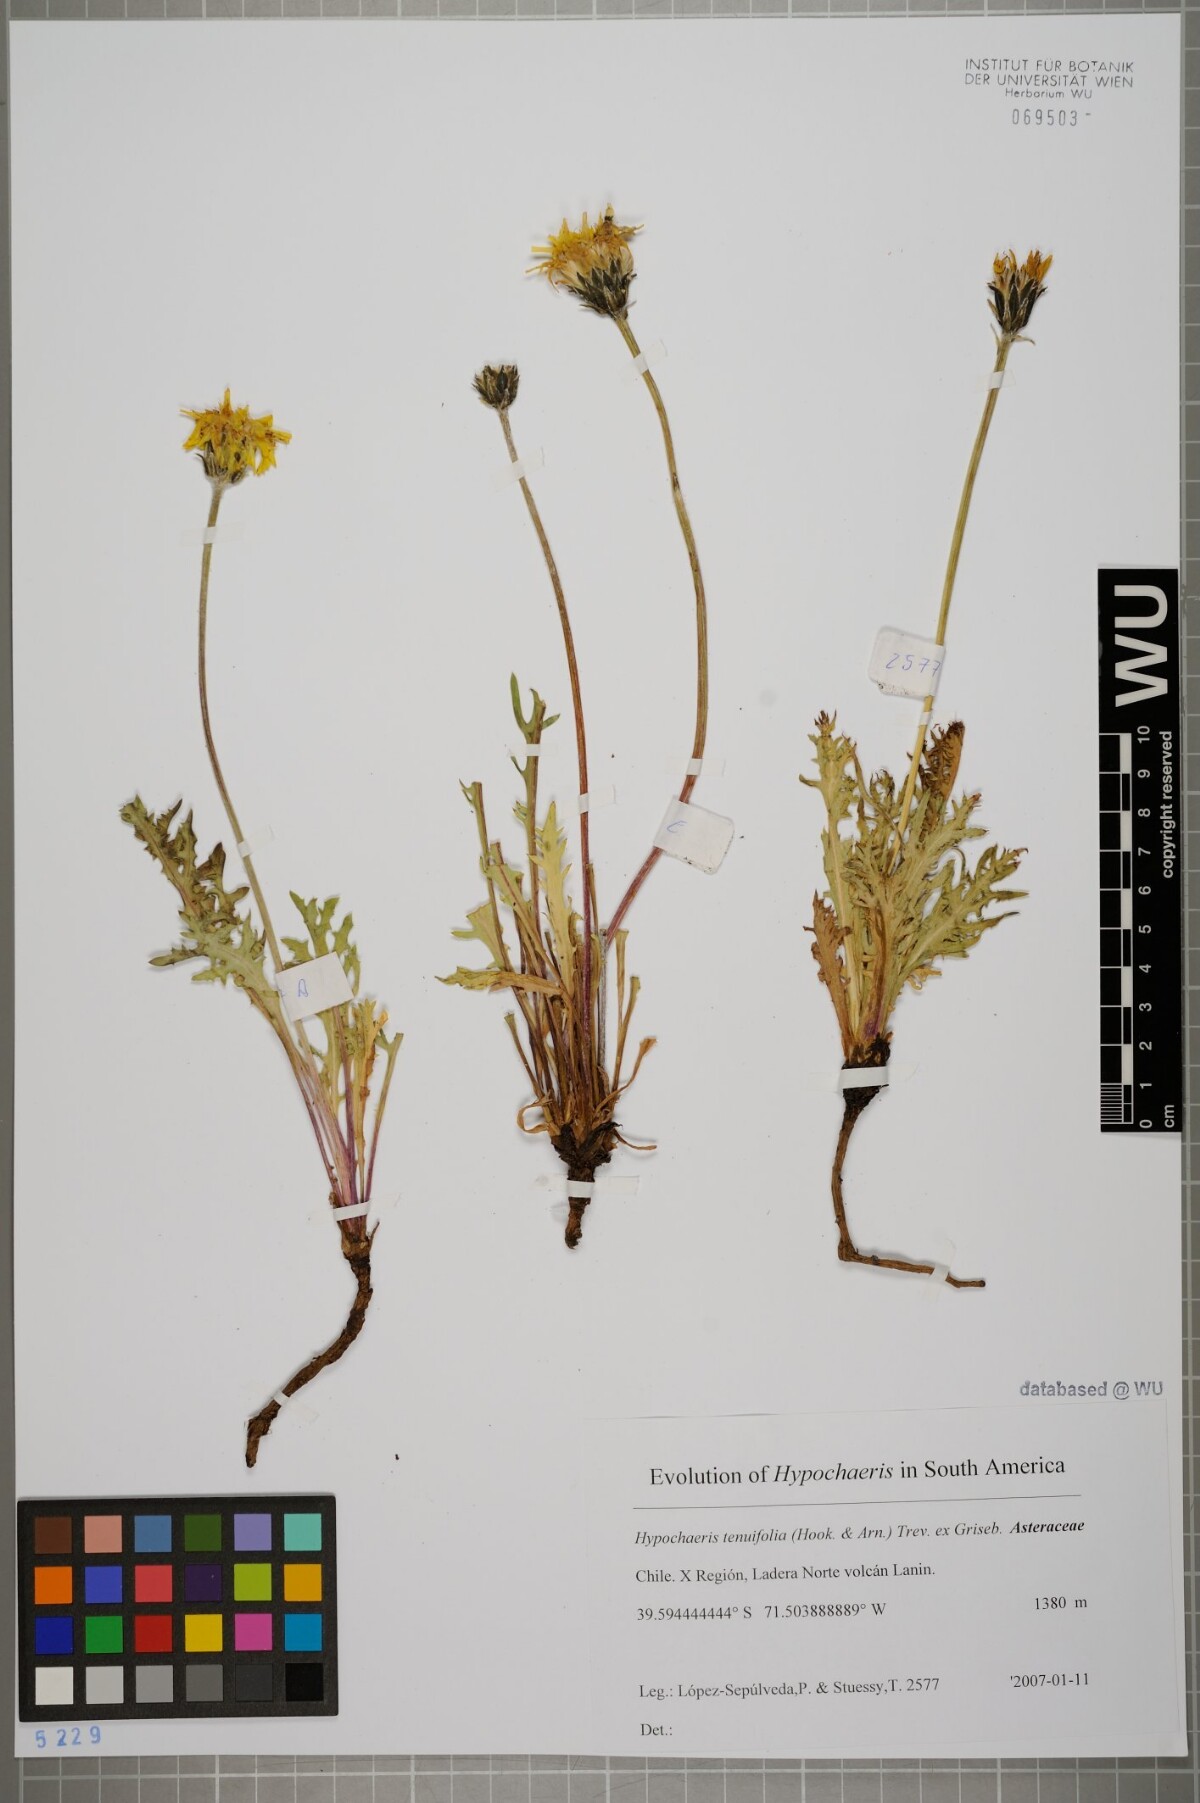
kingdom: Plantae
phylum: Tracheophyta
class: Magnoliopsida
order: Asterales
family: Asteraceae
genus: Hypochaeris
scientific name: Hypochaeris tenuifolia
